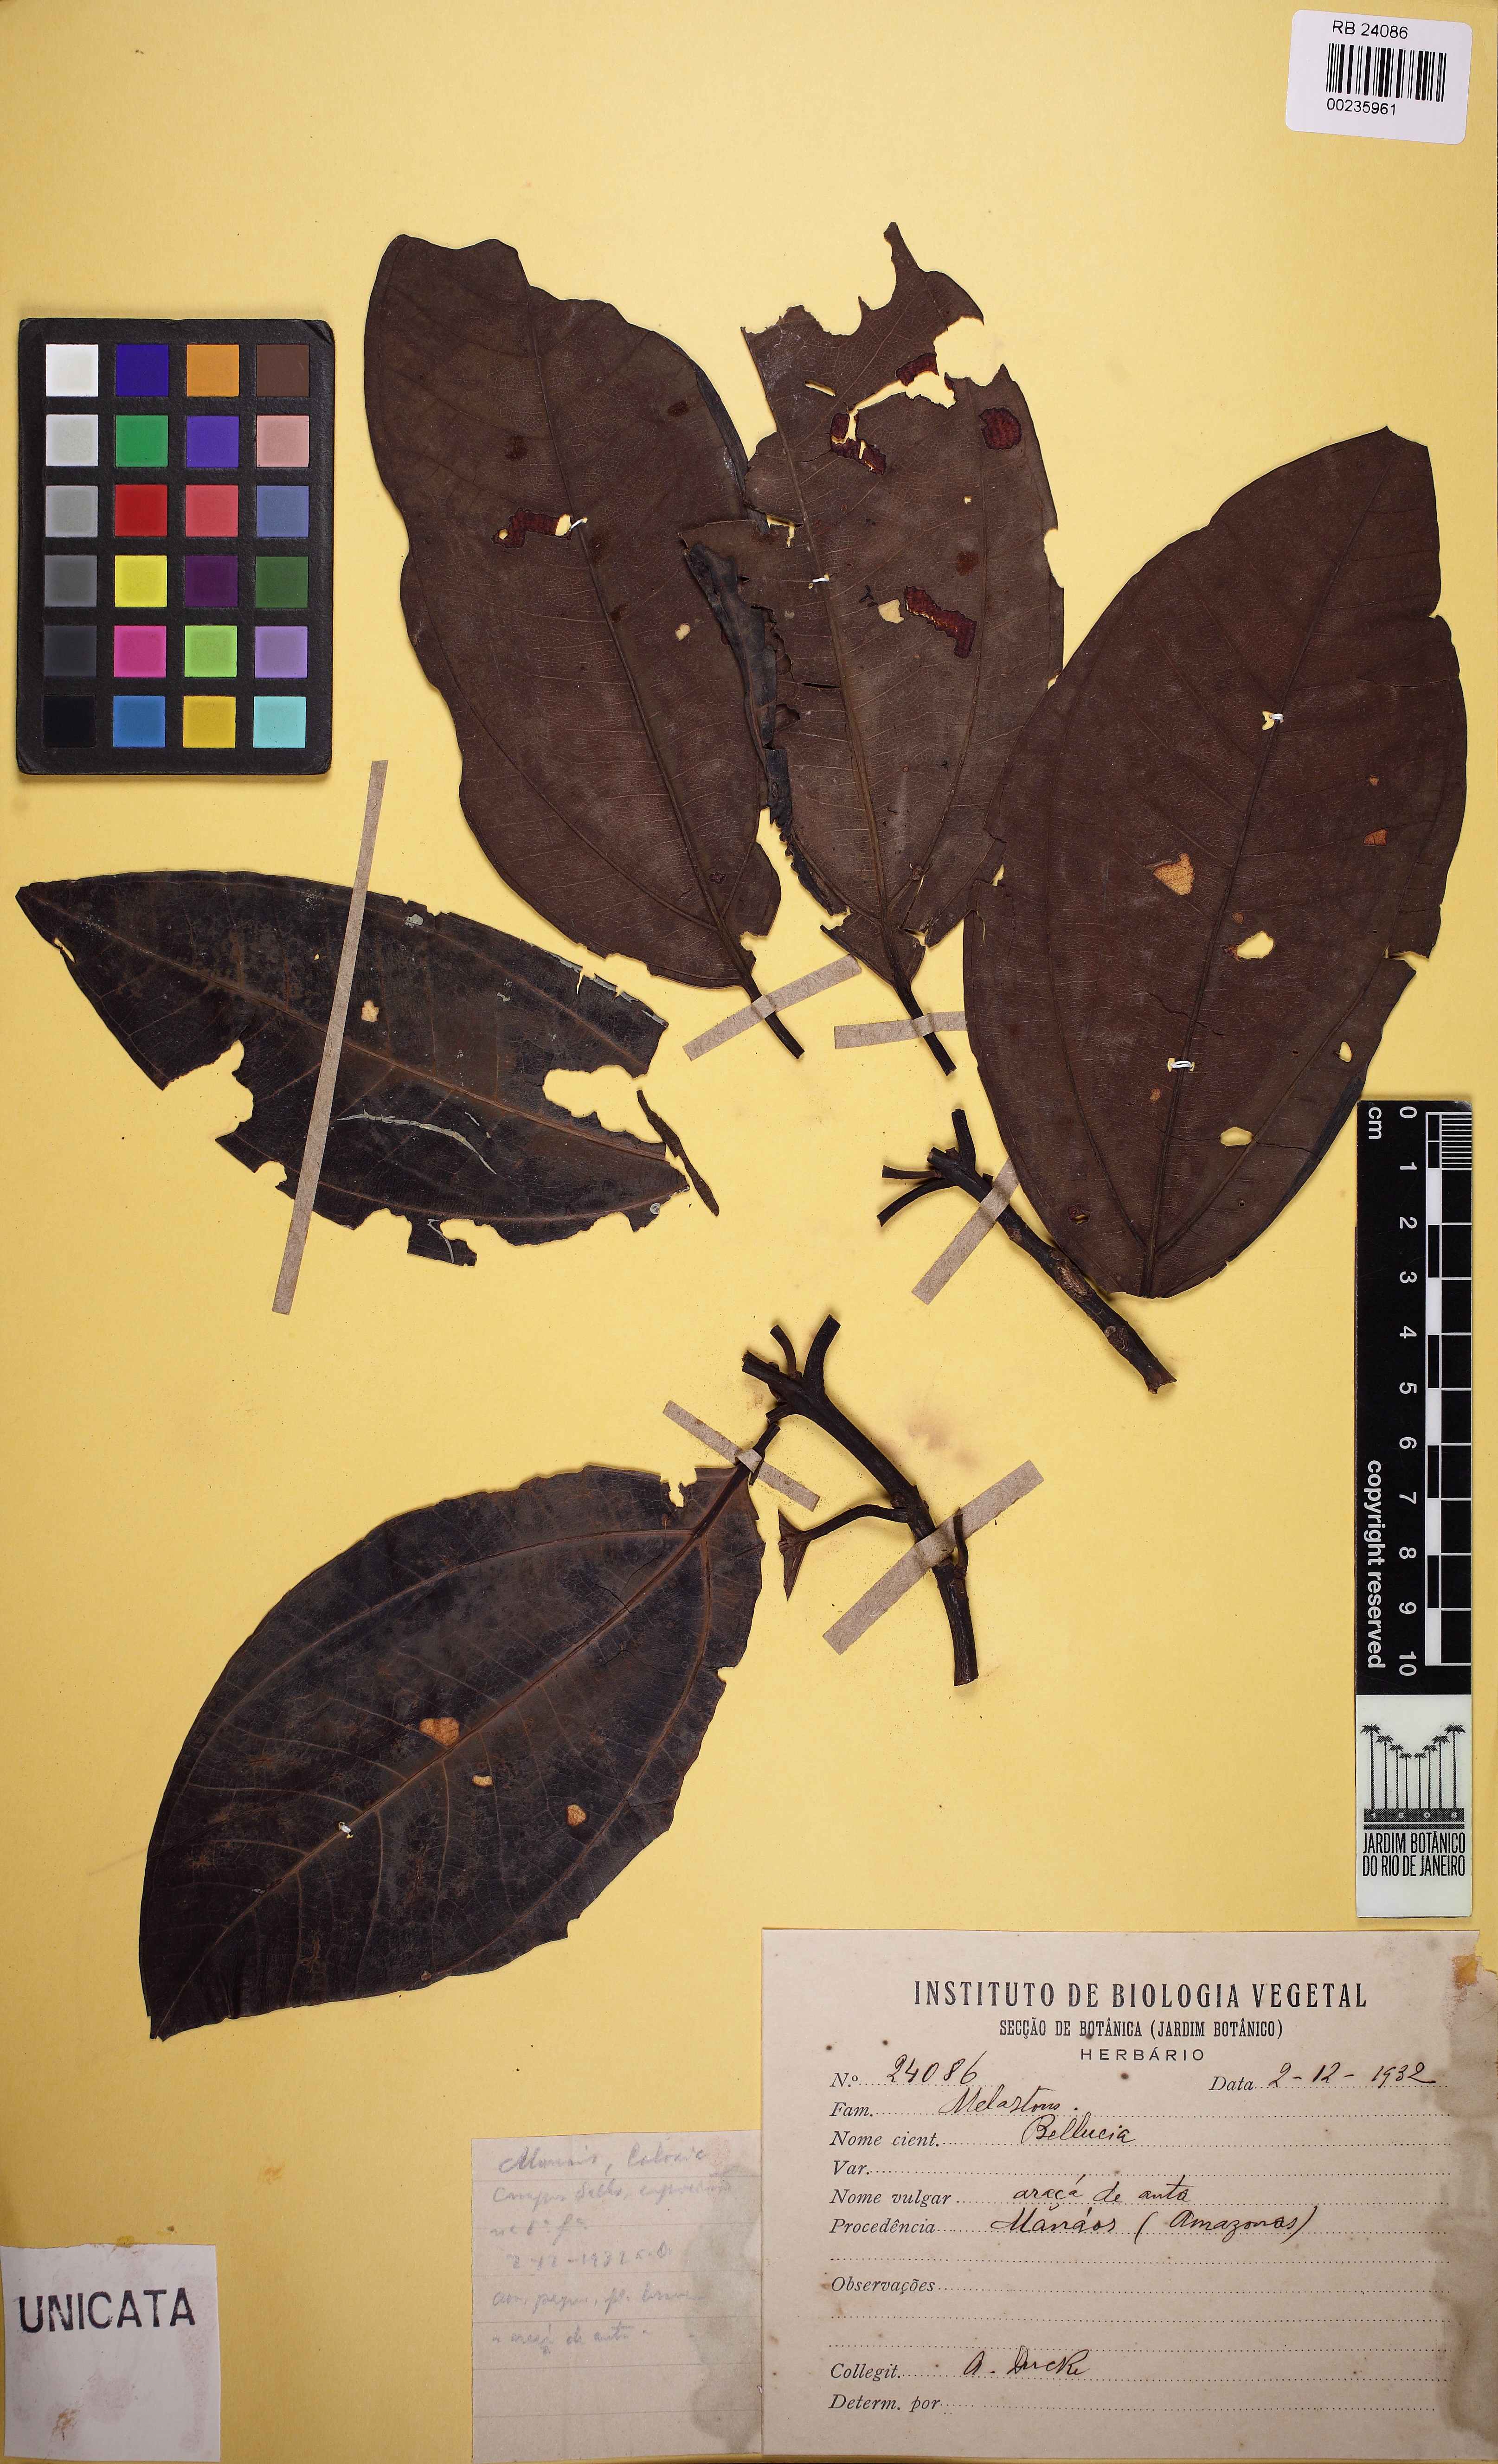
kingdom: Plantae
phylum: Tracheophyta
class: Magnoliopsida
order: Myrtales
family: Melastomataceae
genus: Bellucia
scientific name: Bellucia
